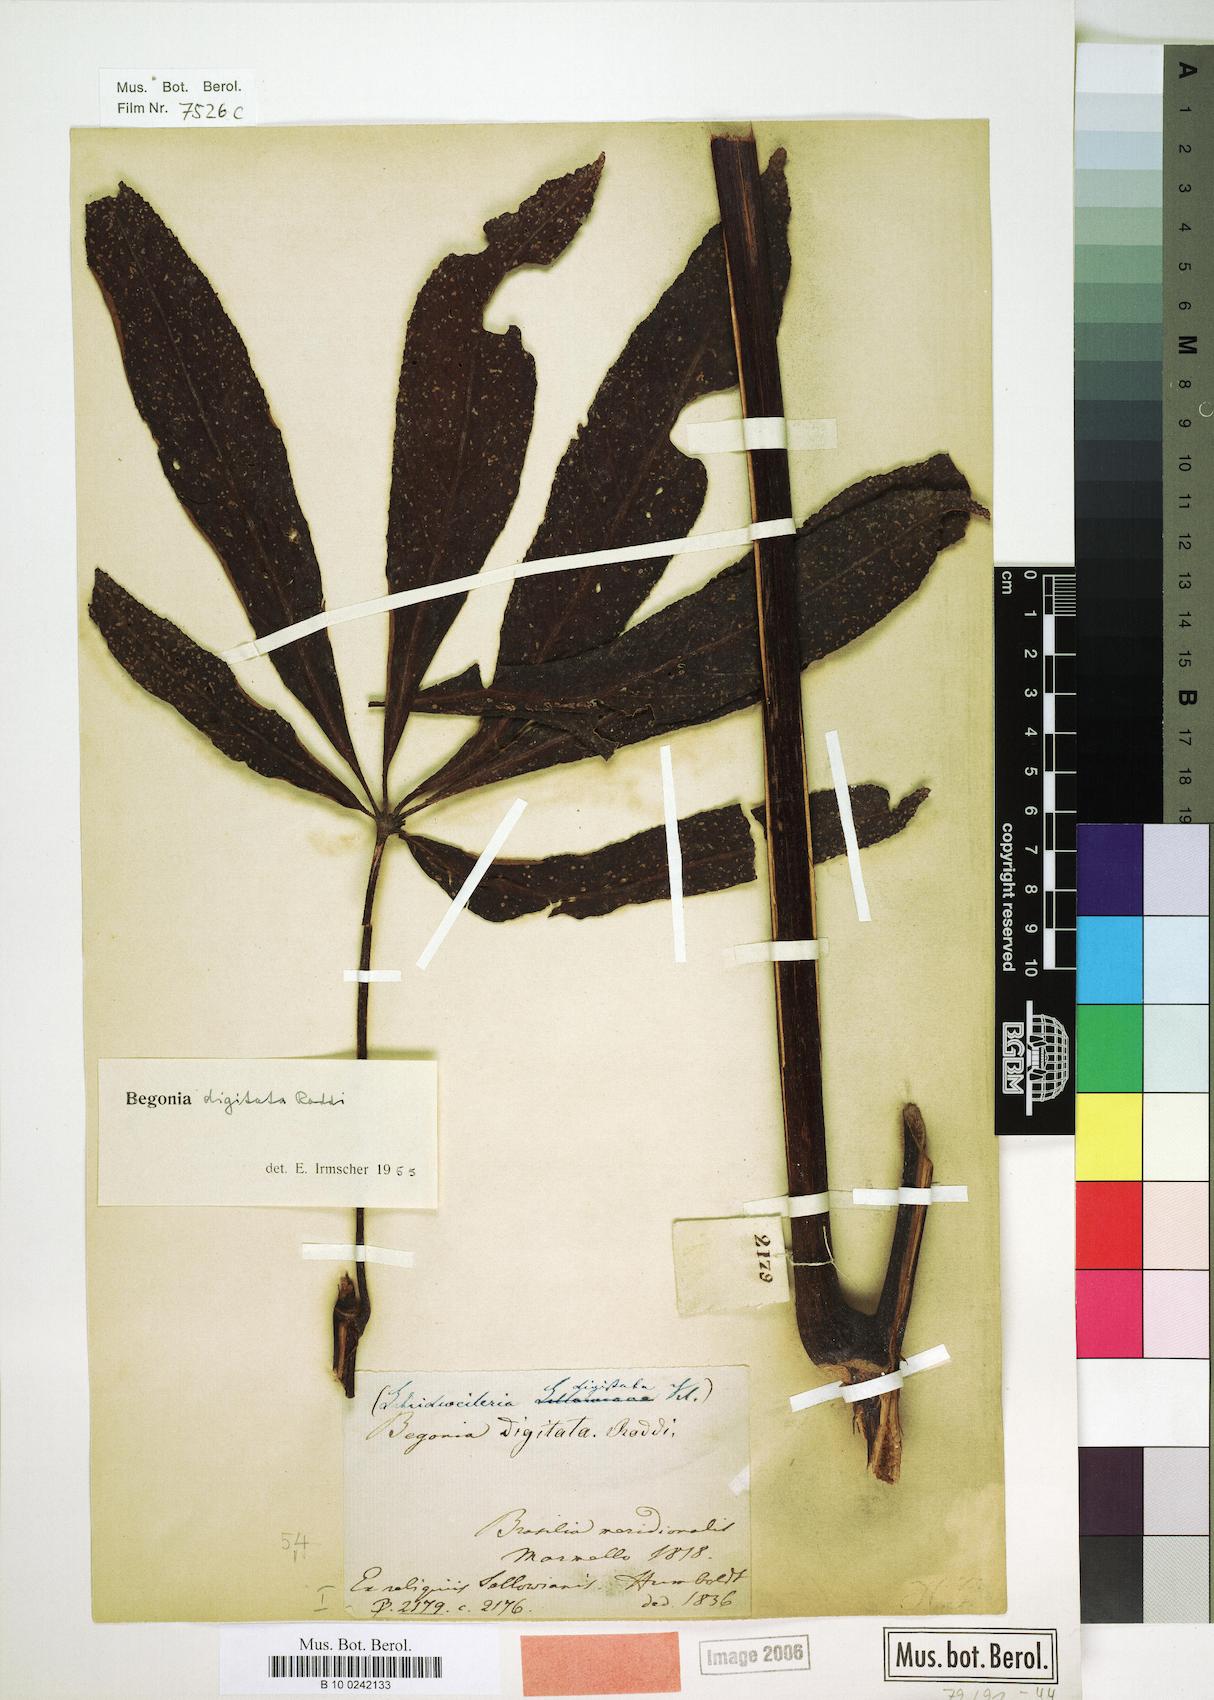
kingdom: Plantae
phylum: Tracheophyta
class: Magnoliopsida
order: Cucurbitales
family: Begoniaceae
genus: Begonia
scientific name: Begonia digitata
